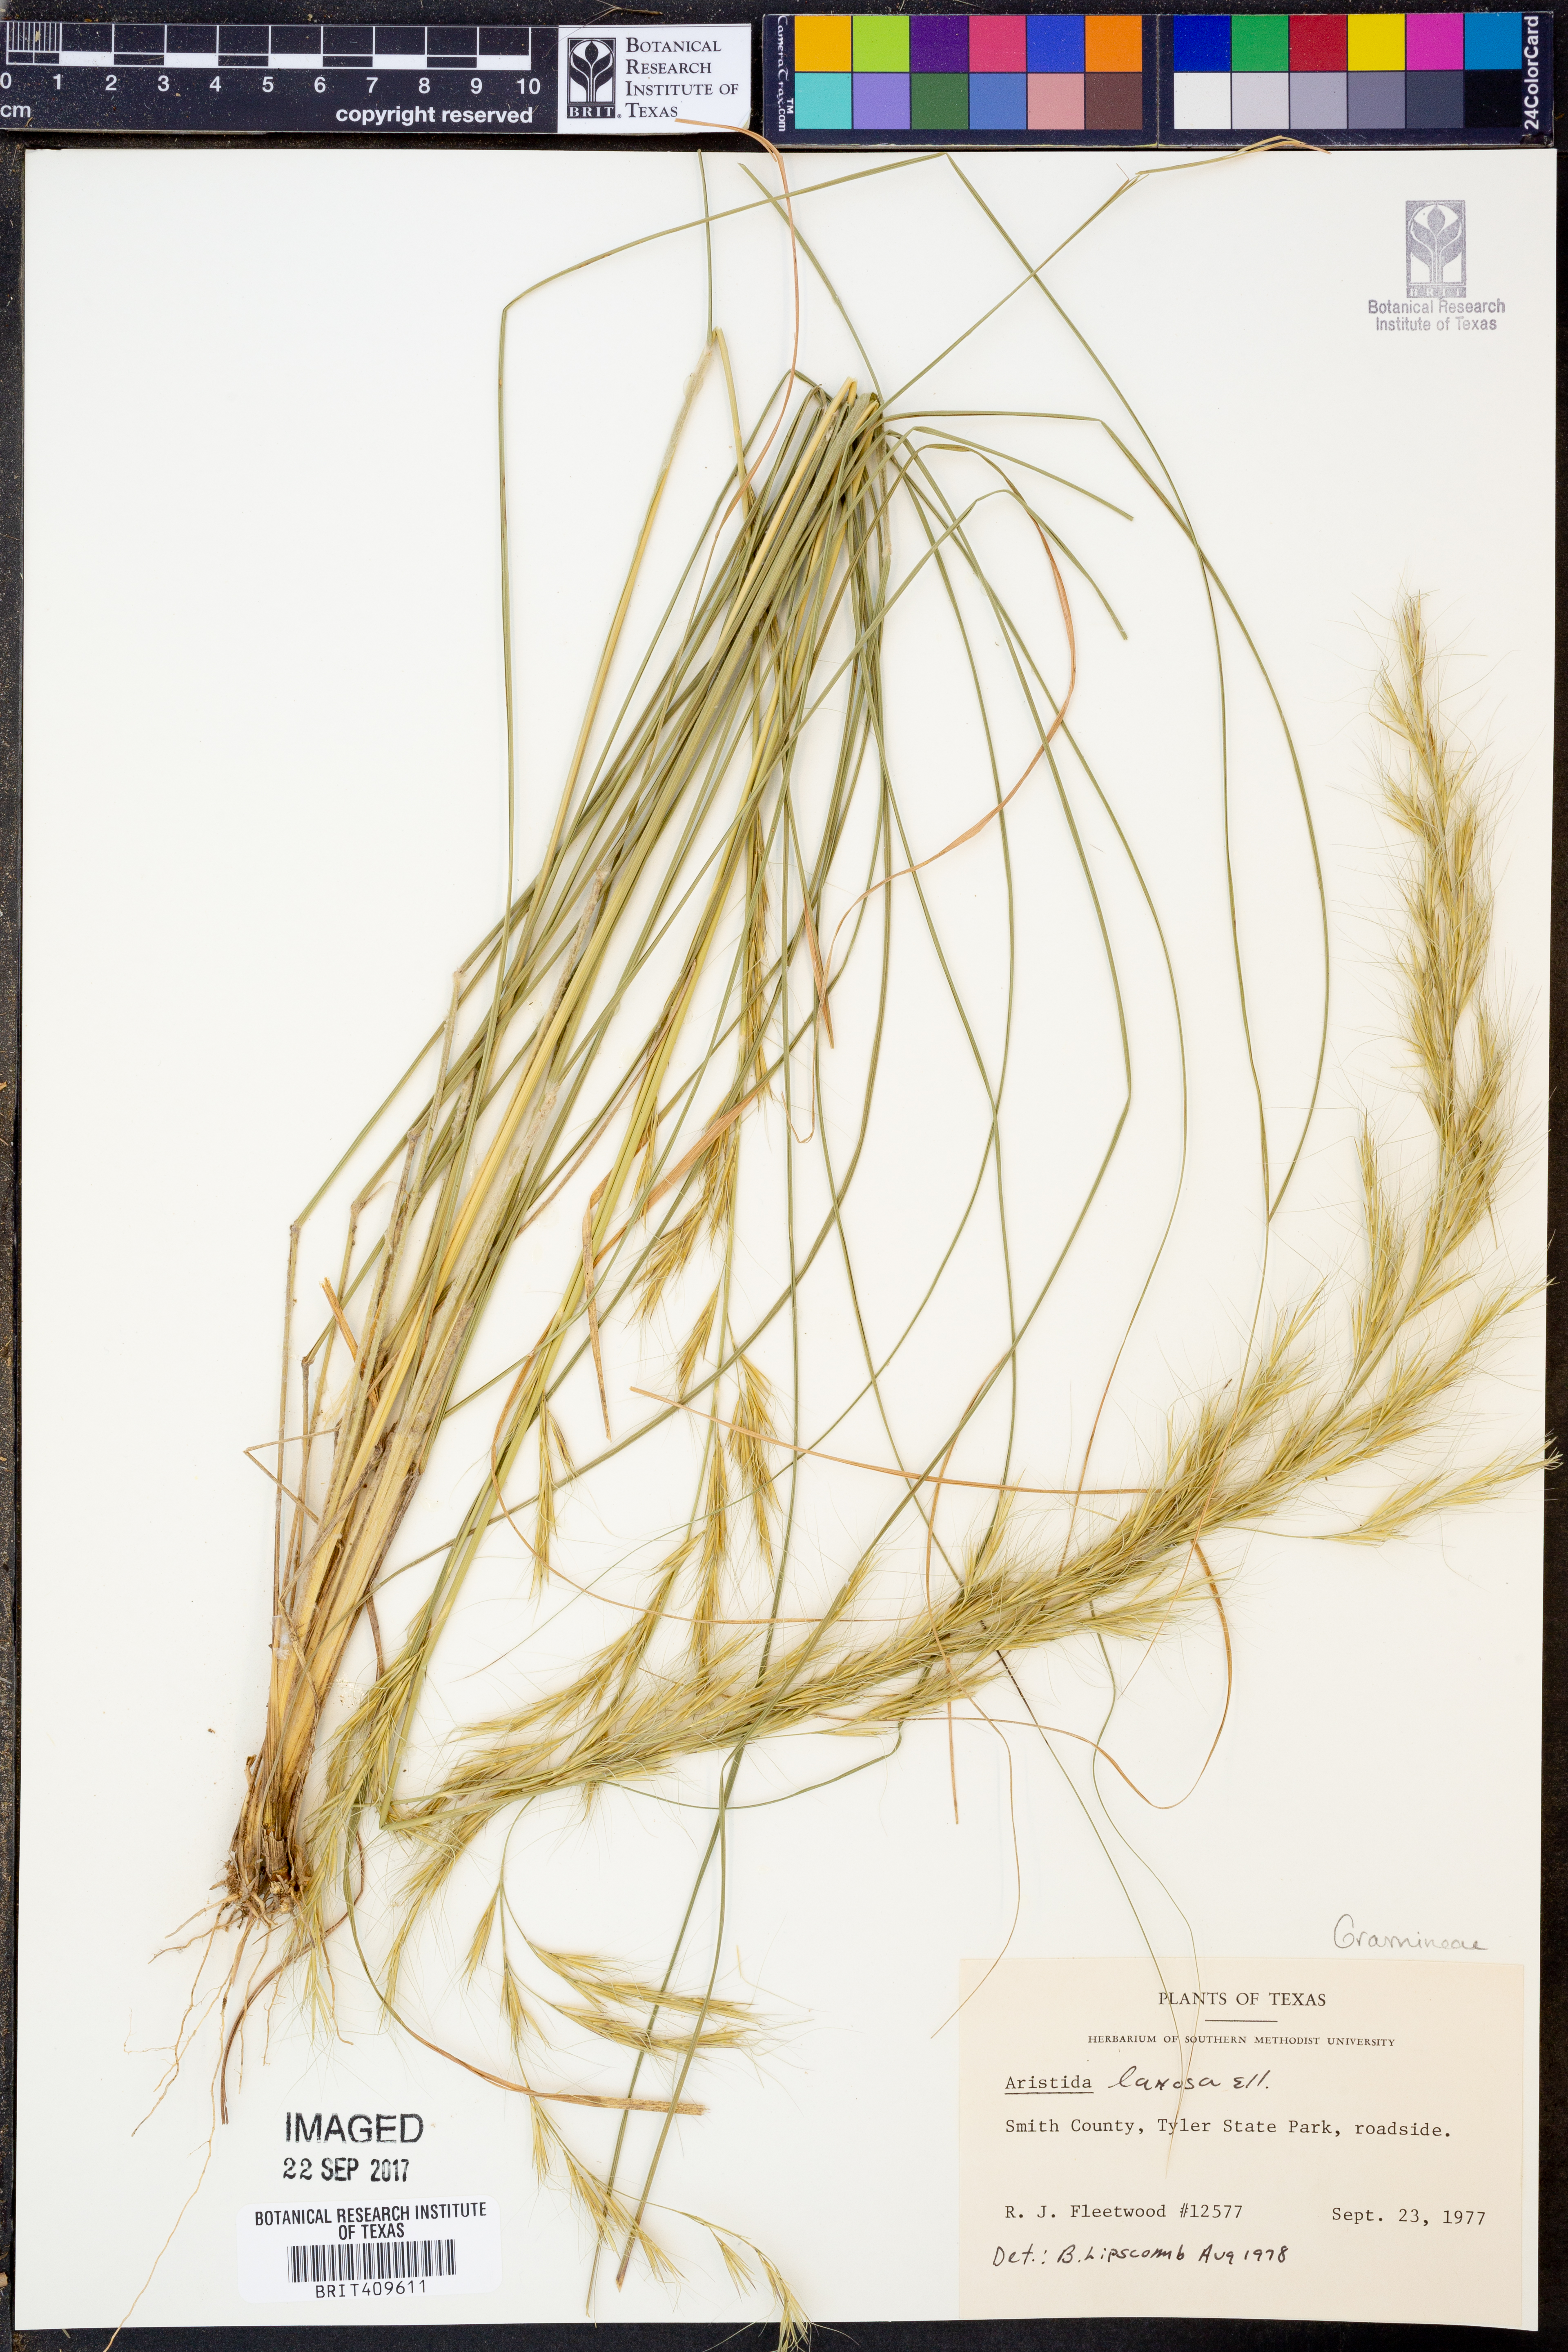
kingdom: Plantae
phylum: Tracheophyta
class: Liliopsida
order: Poales
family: Poaceae
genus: Aristida
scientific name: Aristida lanosa
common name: Woolly three-awn
